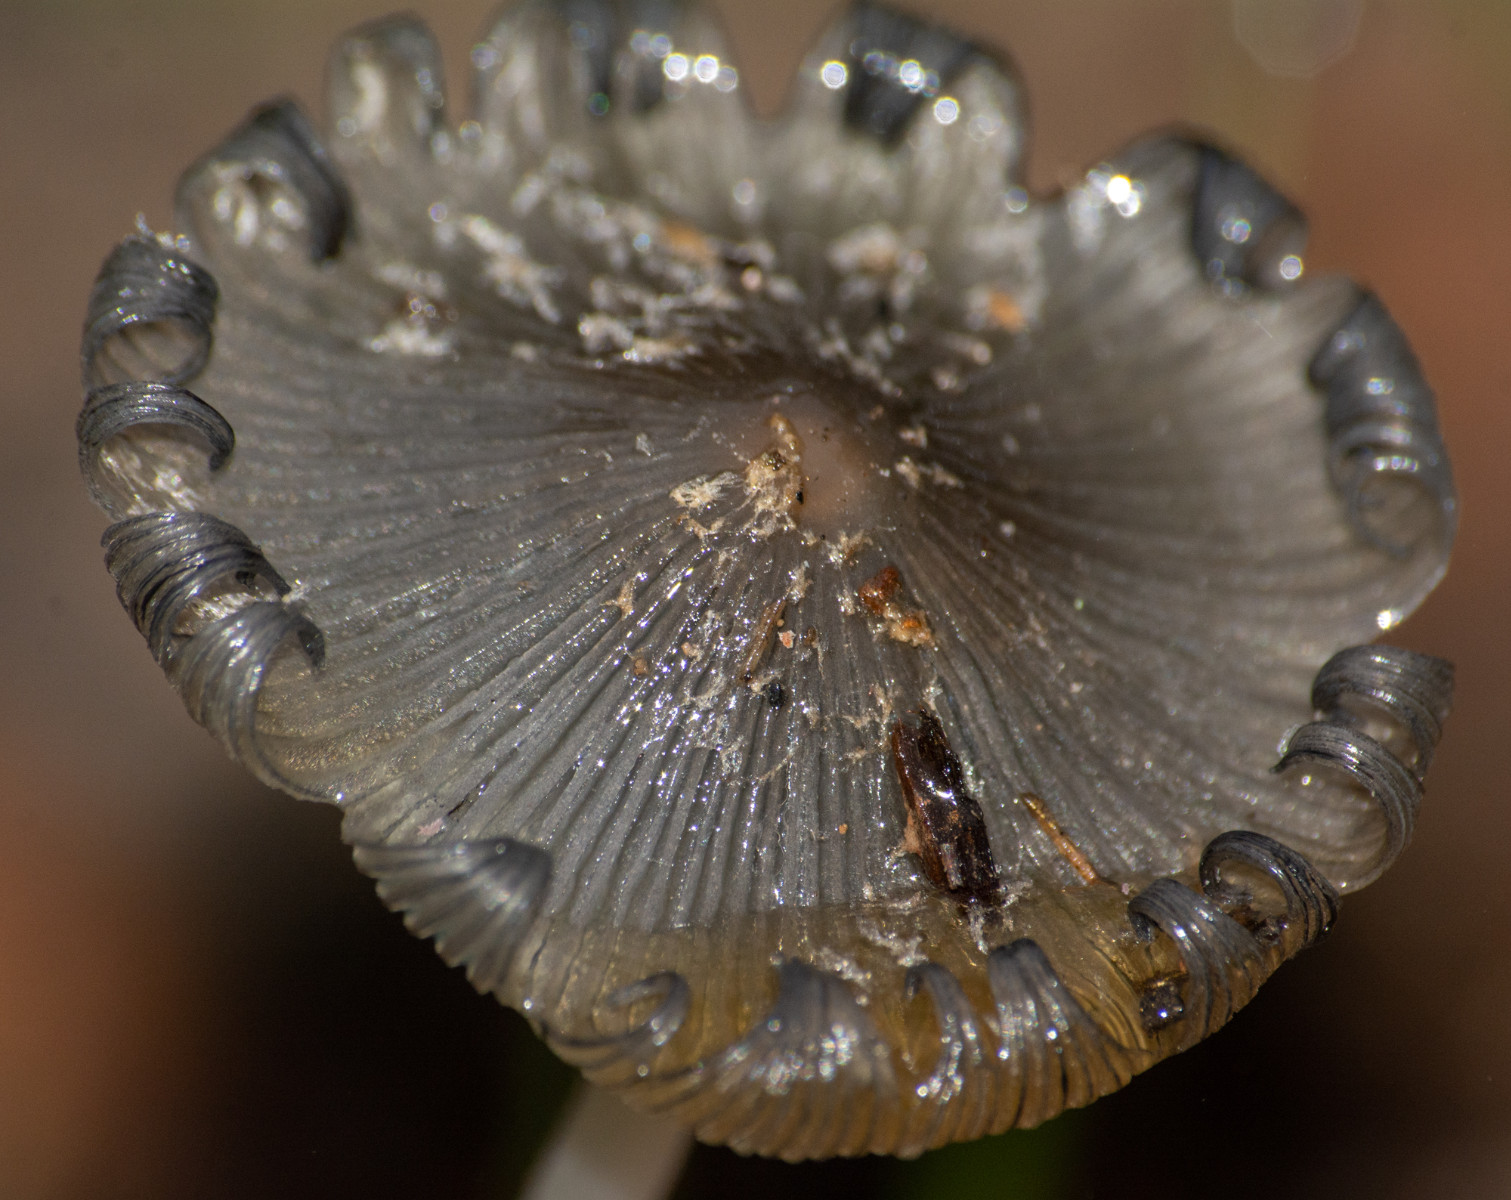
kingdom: Fungi
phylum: Basidiomycota
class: Agaricomycetes
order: Agaricales
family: Psathyrellaceae
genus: Coprinopsis
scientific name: Coprinopsis
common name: blækhat
